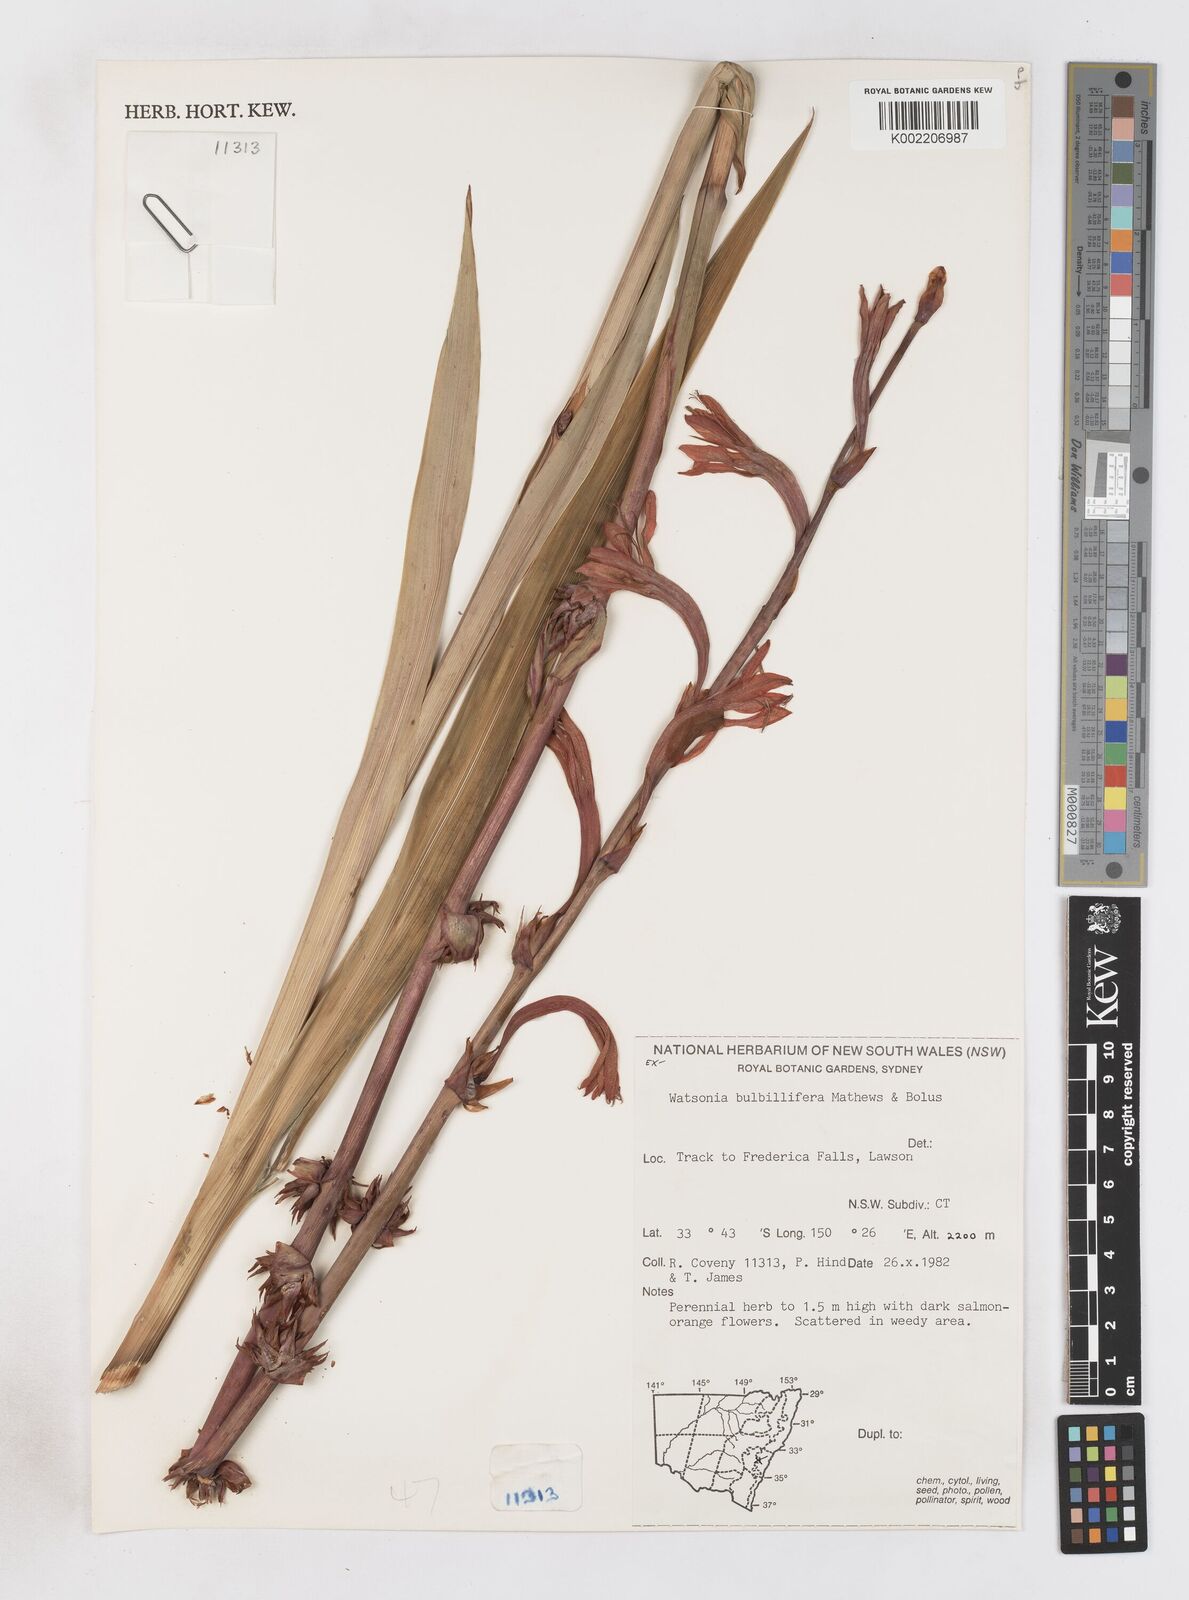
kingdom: Plantae
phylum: Tracheophyta
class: Liliopsida
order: Asparagales
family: Iridaceae
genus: Watsonia
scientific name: Watsonia meriana
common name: Bulbil bugle-lily
